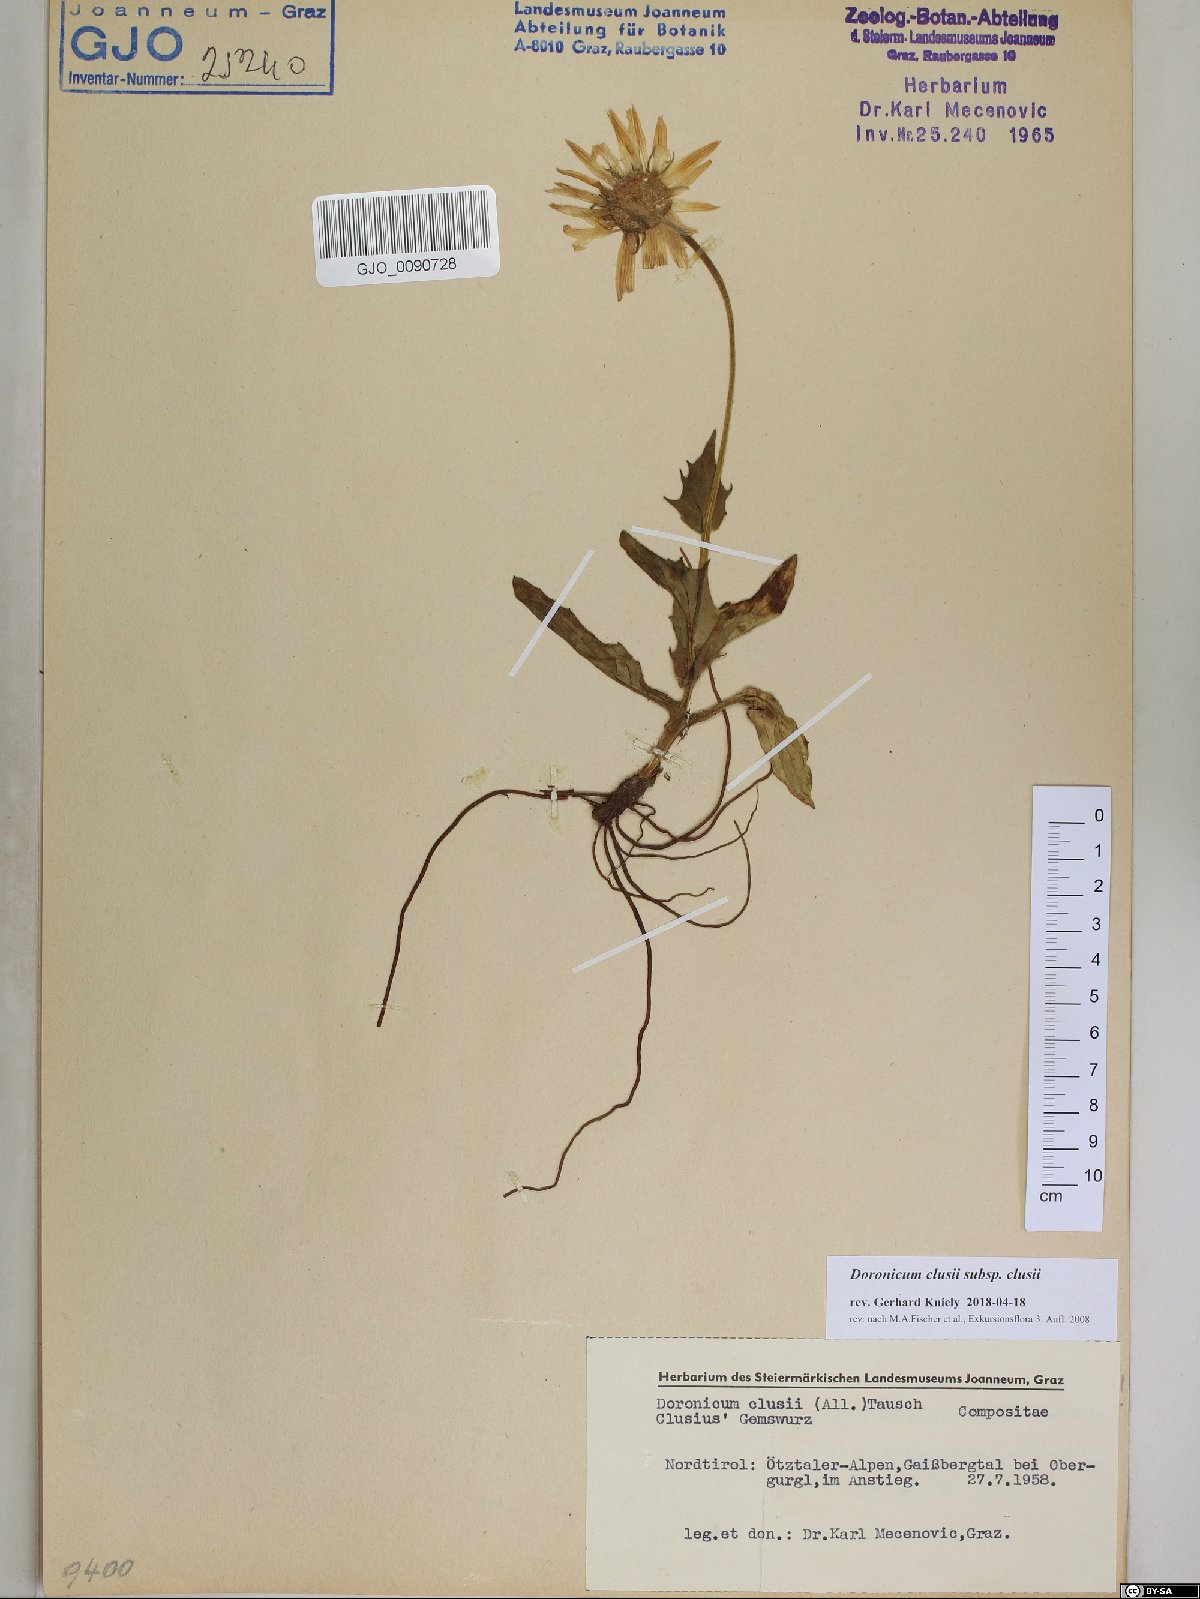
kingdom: Plantae
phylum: Tracheophyta
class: Magnoliopsida
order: Asterales
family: Asteraceae
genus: Doronicum
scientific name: Doronicum clusii
